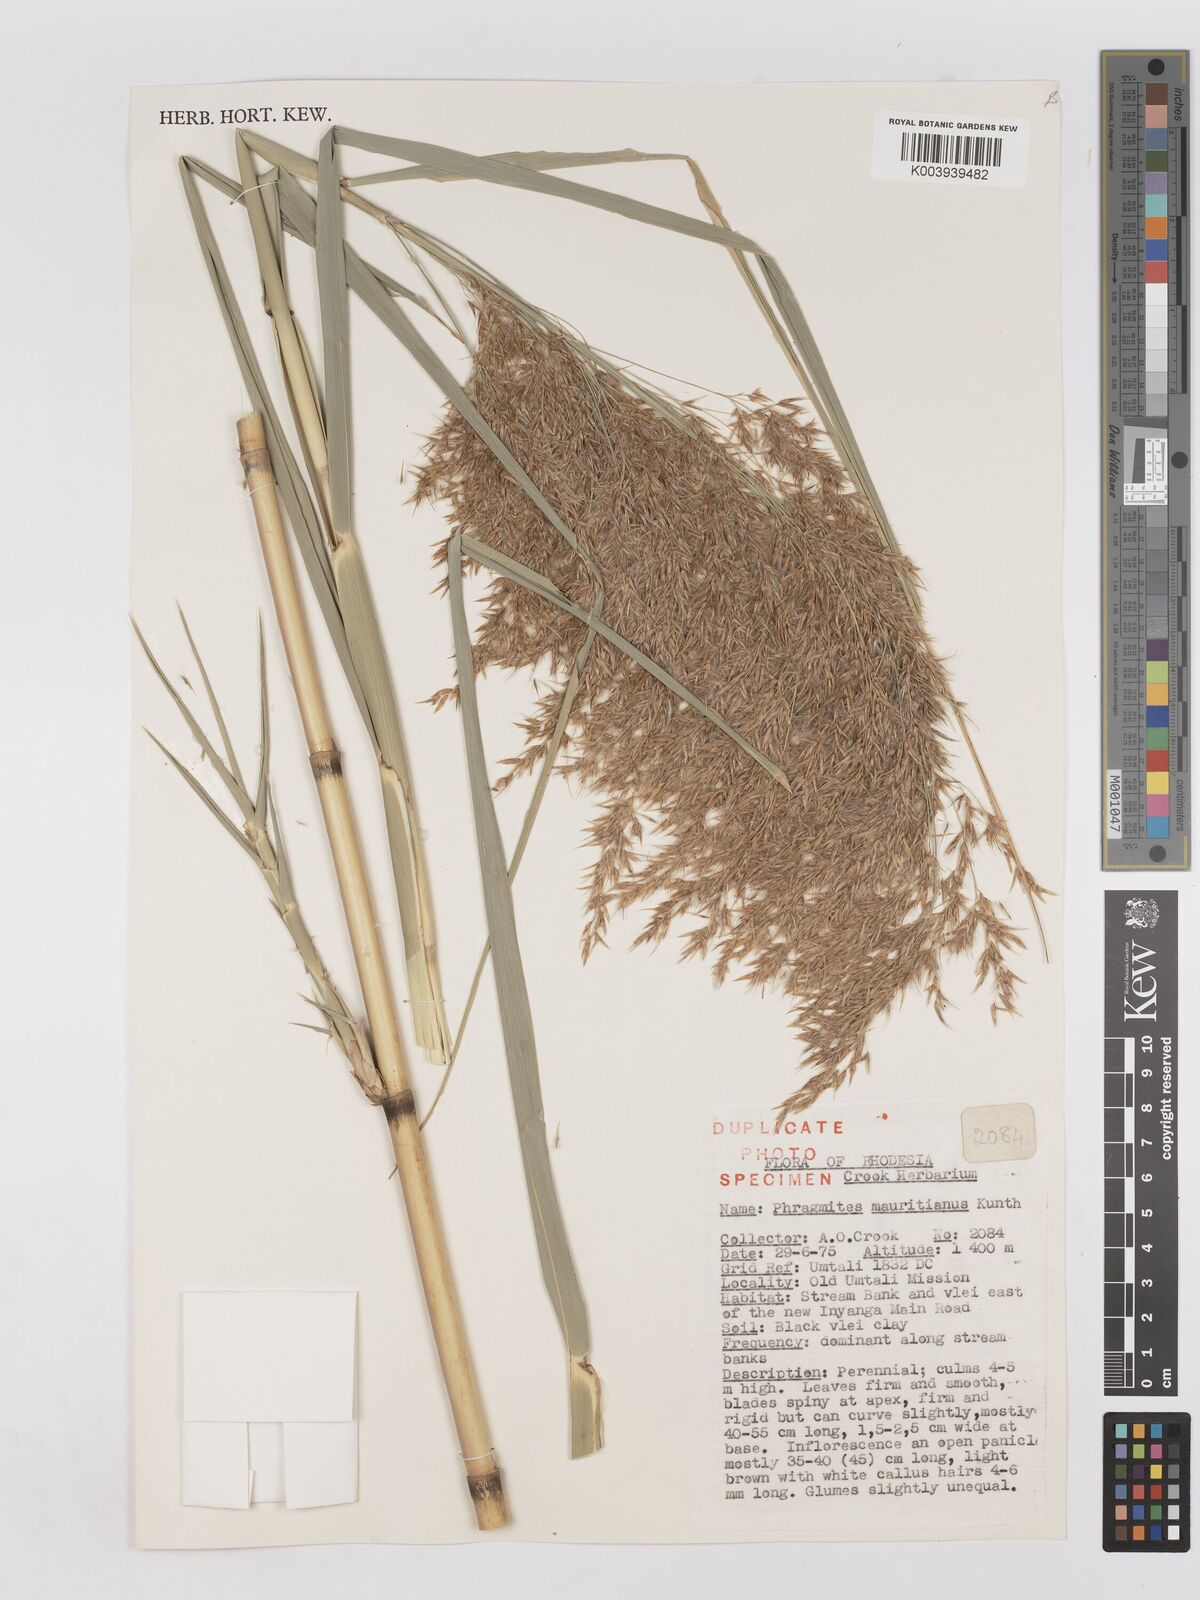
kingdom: Plantae
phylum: Tracheophyta
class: Liliopsida
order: Poales
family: Poaceae
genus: Phragmites
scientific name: Phragmites mauritianus
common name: Reed grass
